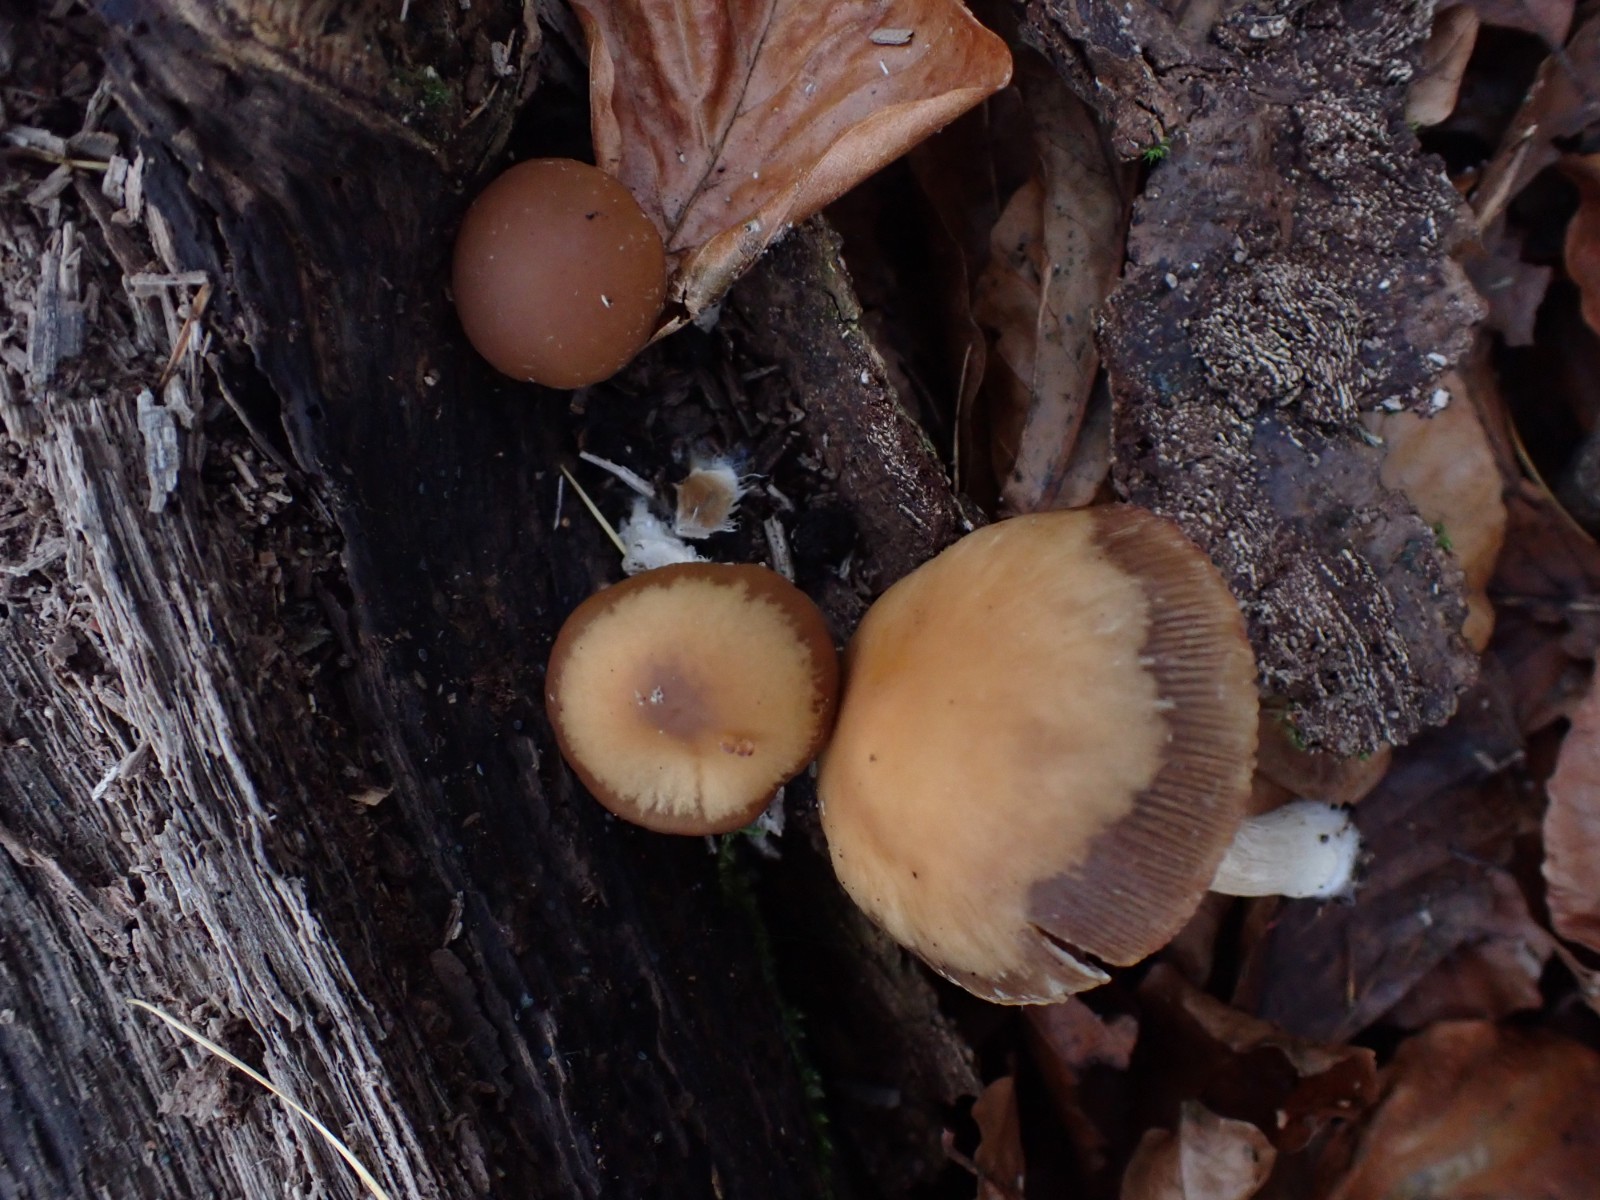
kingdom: Fungi
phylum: Basidiomycota
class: Agaricomycetes
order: Agaricales
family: Psathyrellaceae
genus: Psathyrella
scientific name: Psathyrella
